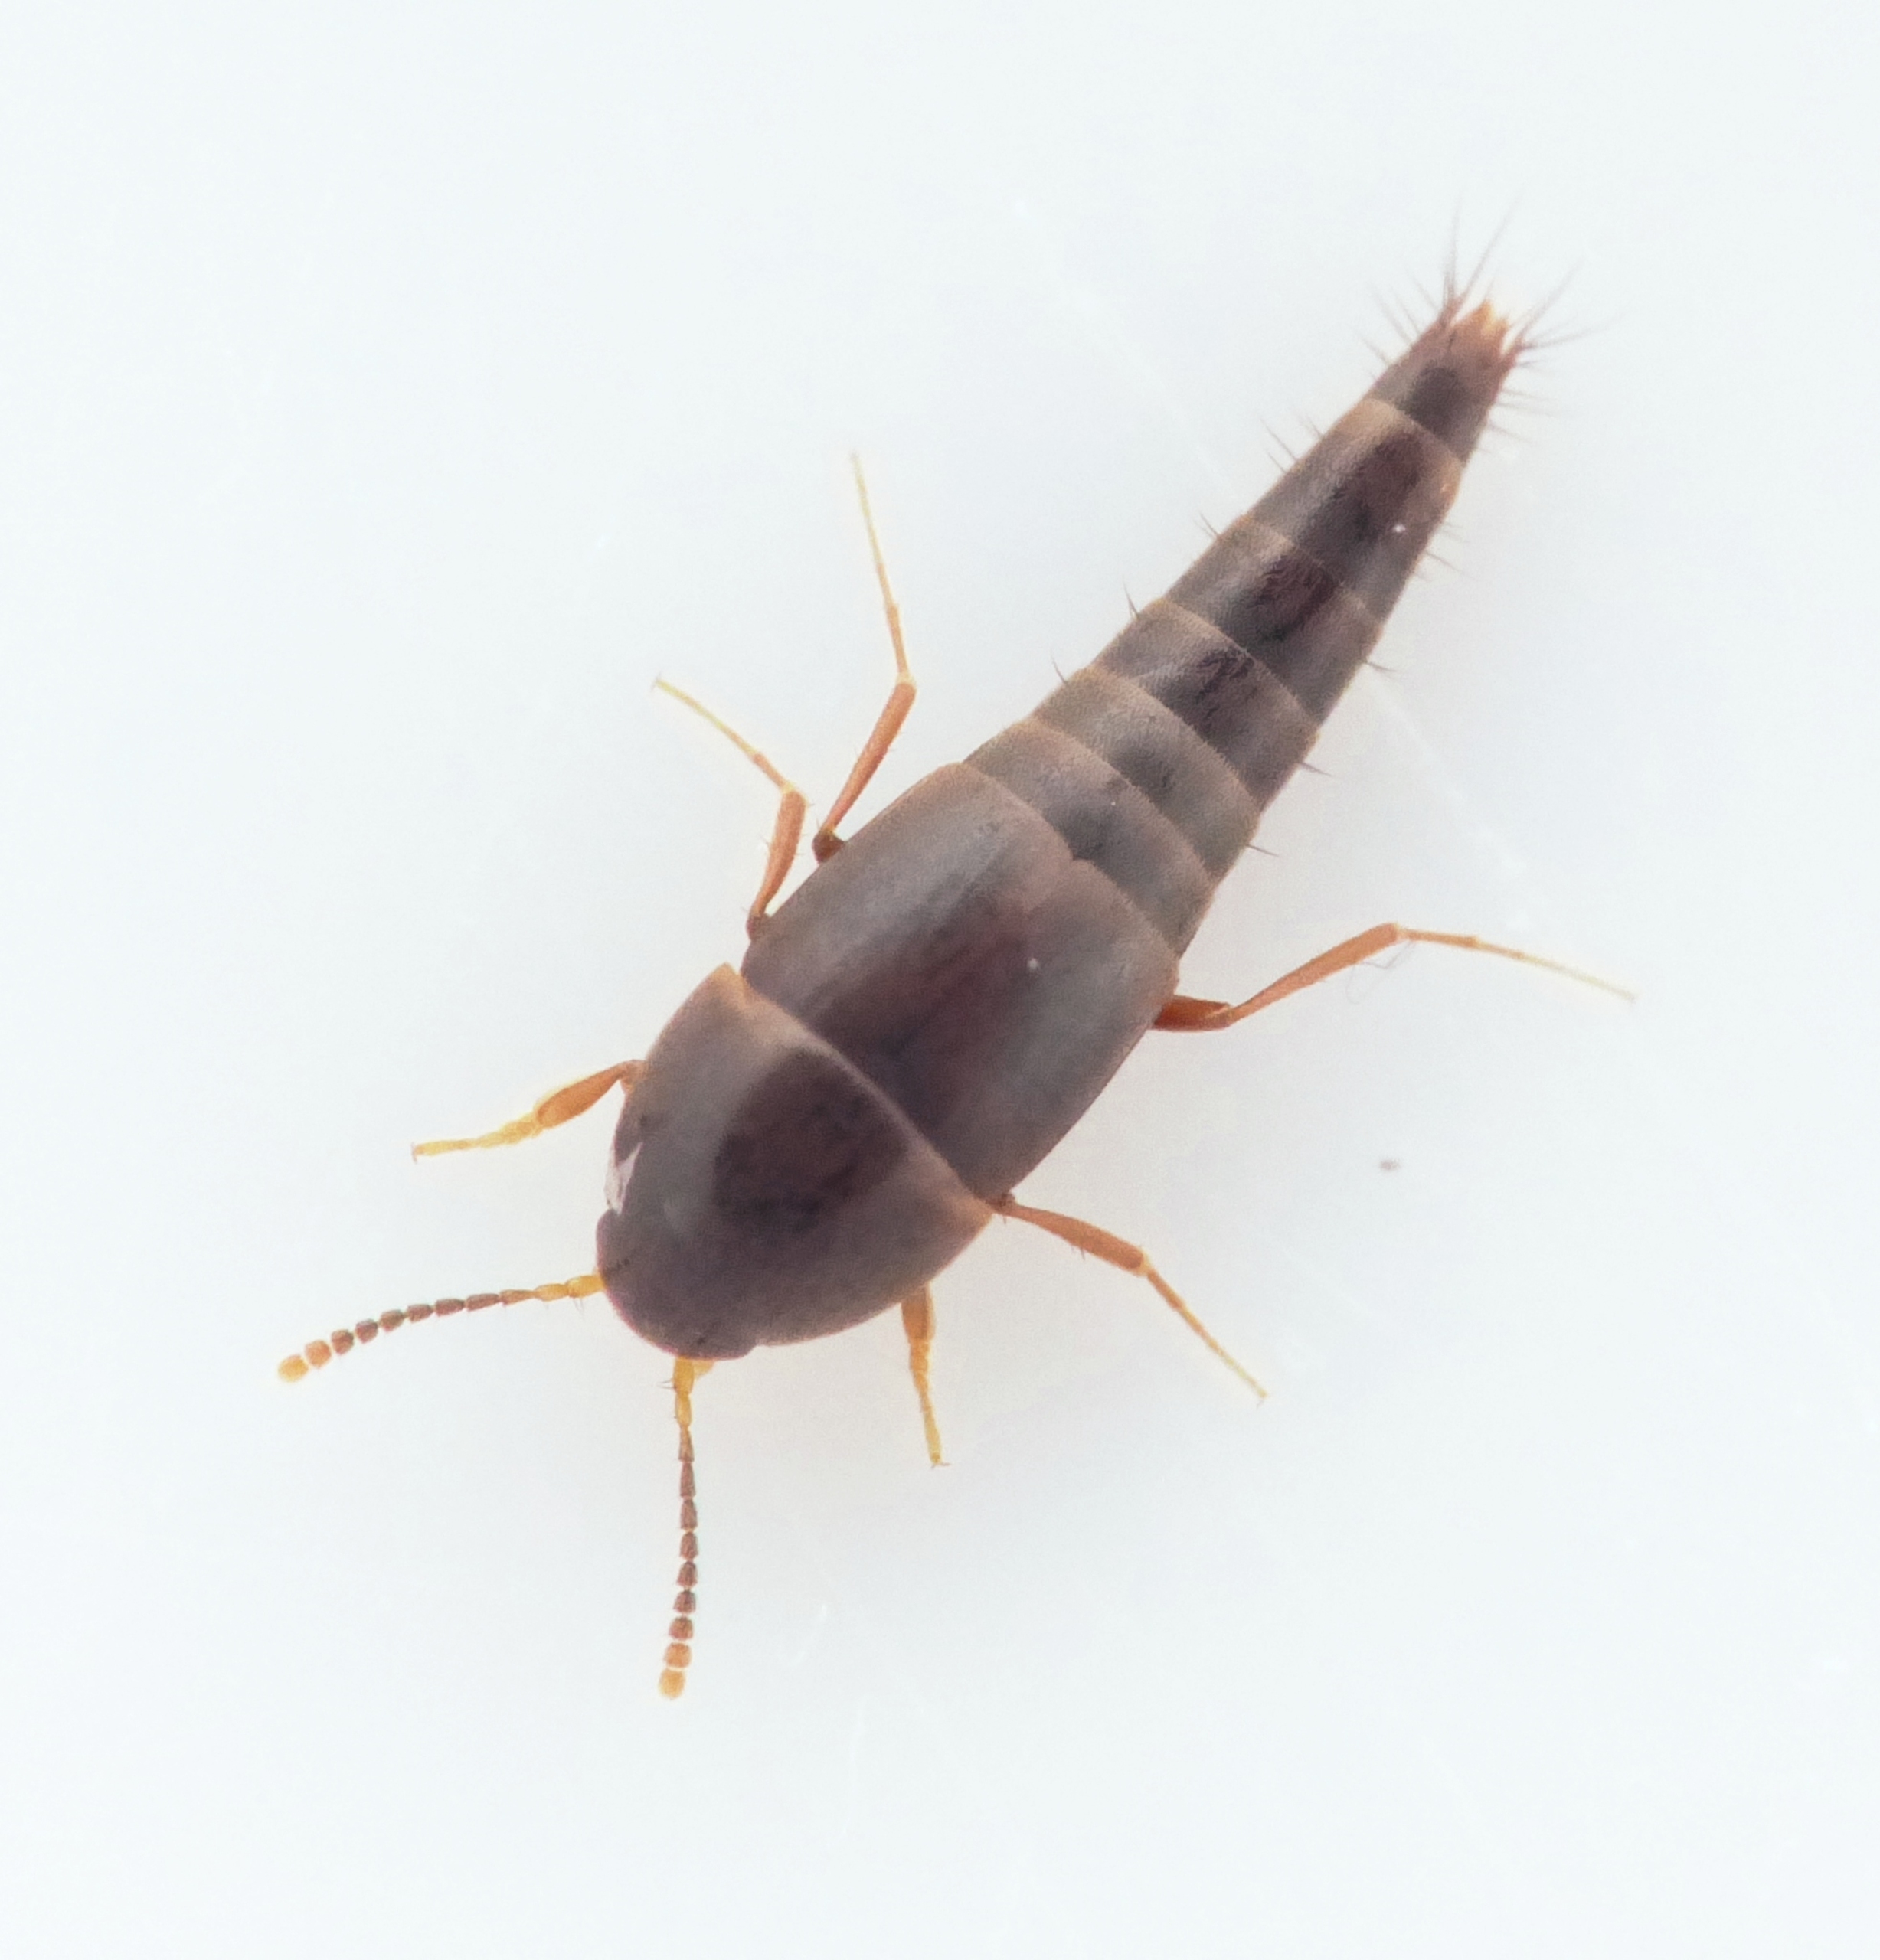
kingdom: Animalia
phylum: Arthropoda
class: Insecta
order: Coleoptera
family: Staphylinidae
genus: Sepedophilus
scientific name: Sepedophilus immaculatus
